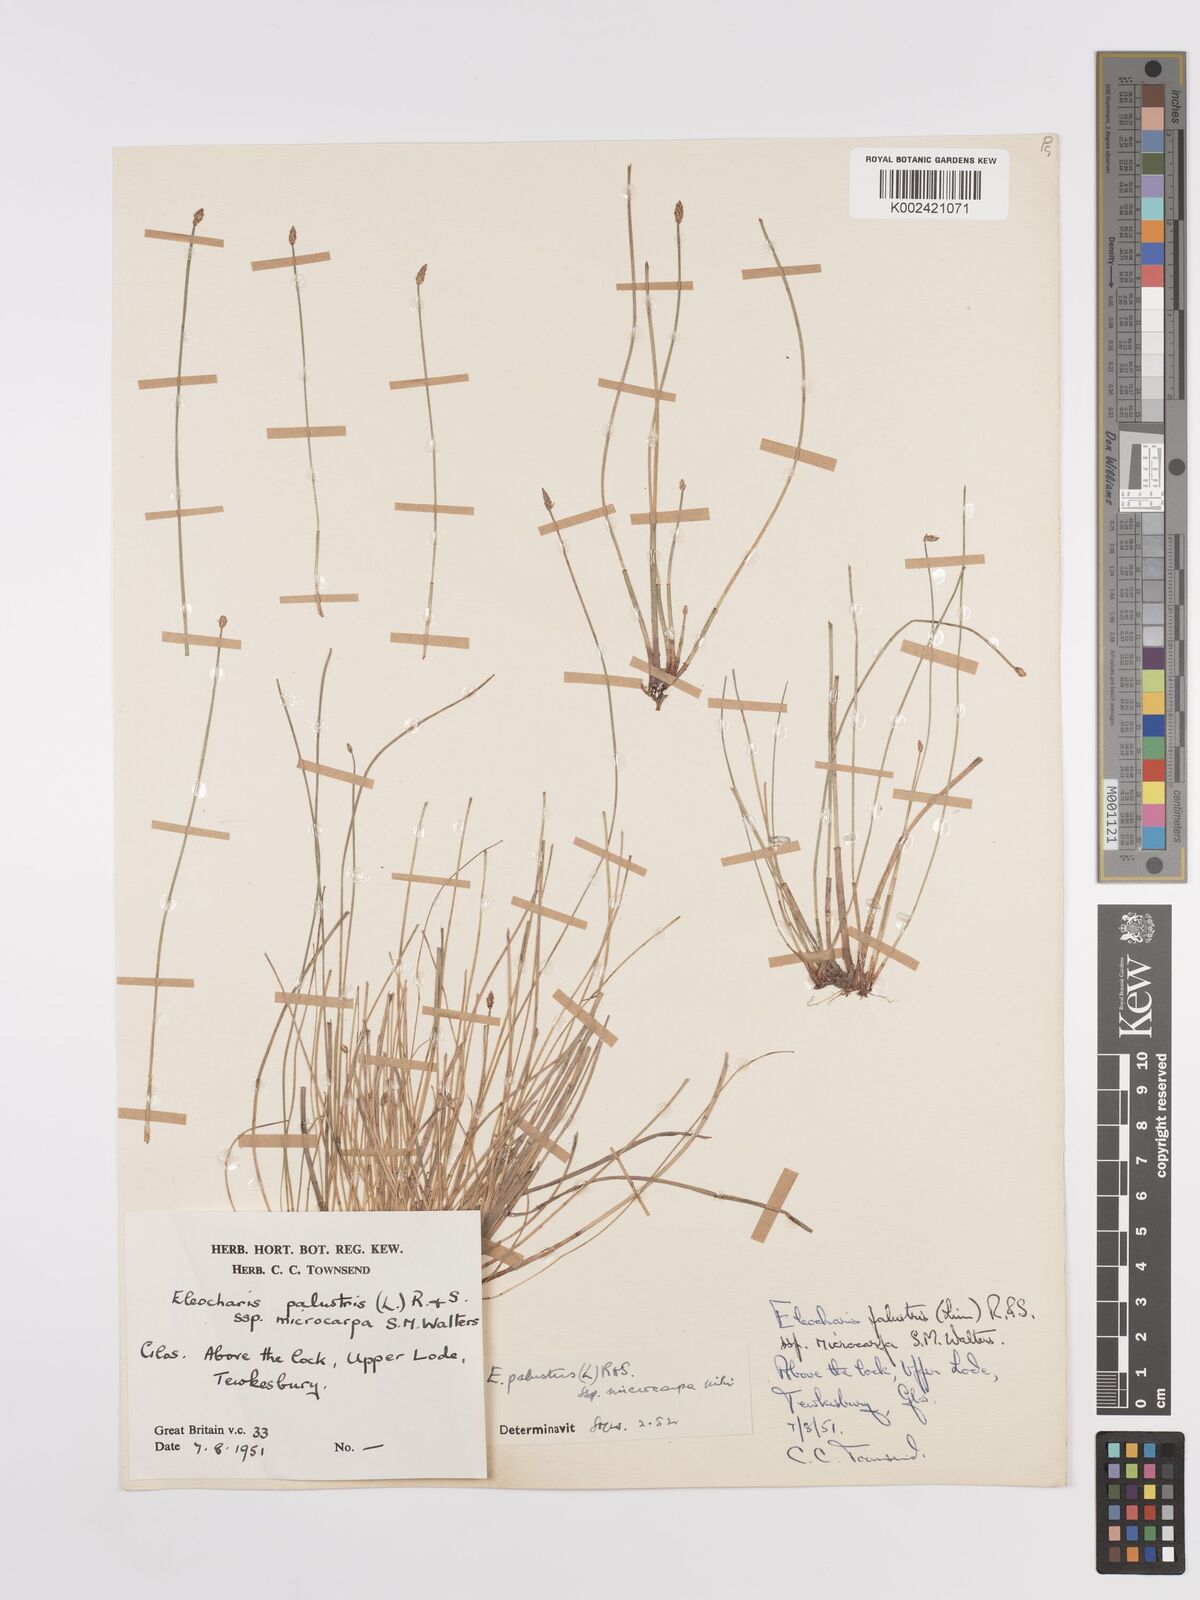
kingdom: Plantae
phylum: Tracheophyta
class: Liliopsida
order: Poales
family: Cyperaceae
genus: Eleocharis
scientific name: Eleocharis palustris
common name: Common spike-rush
